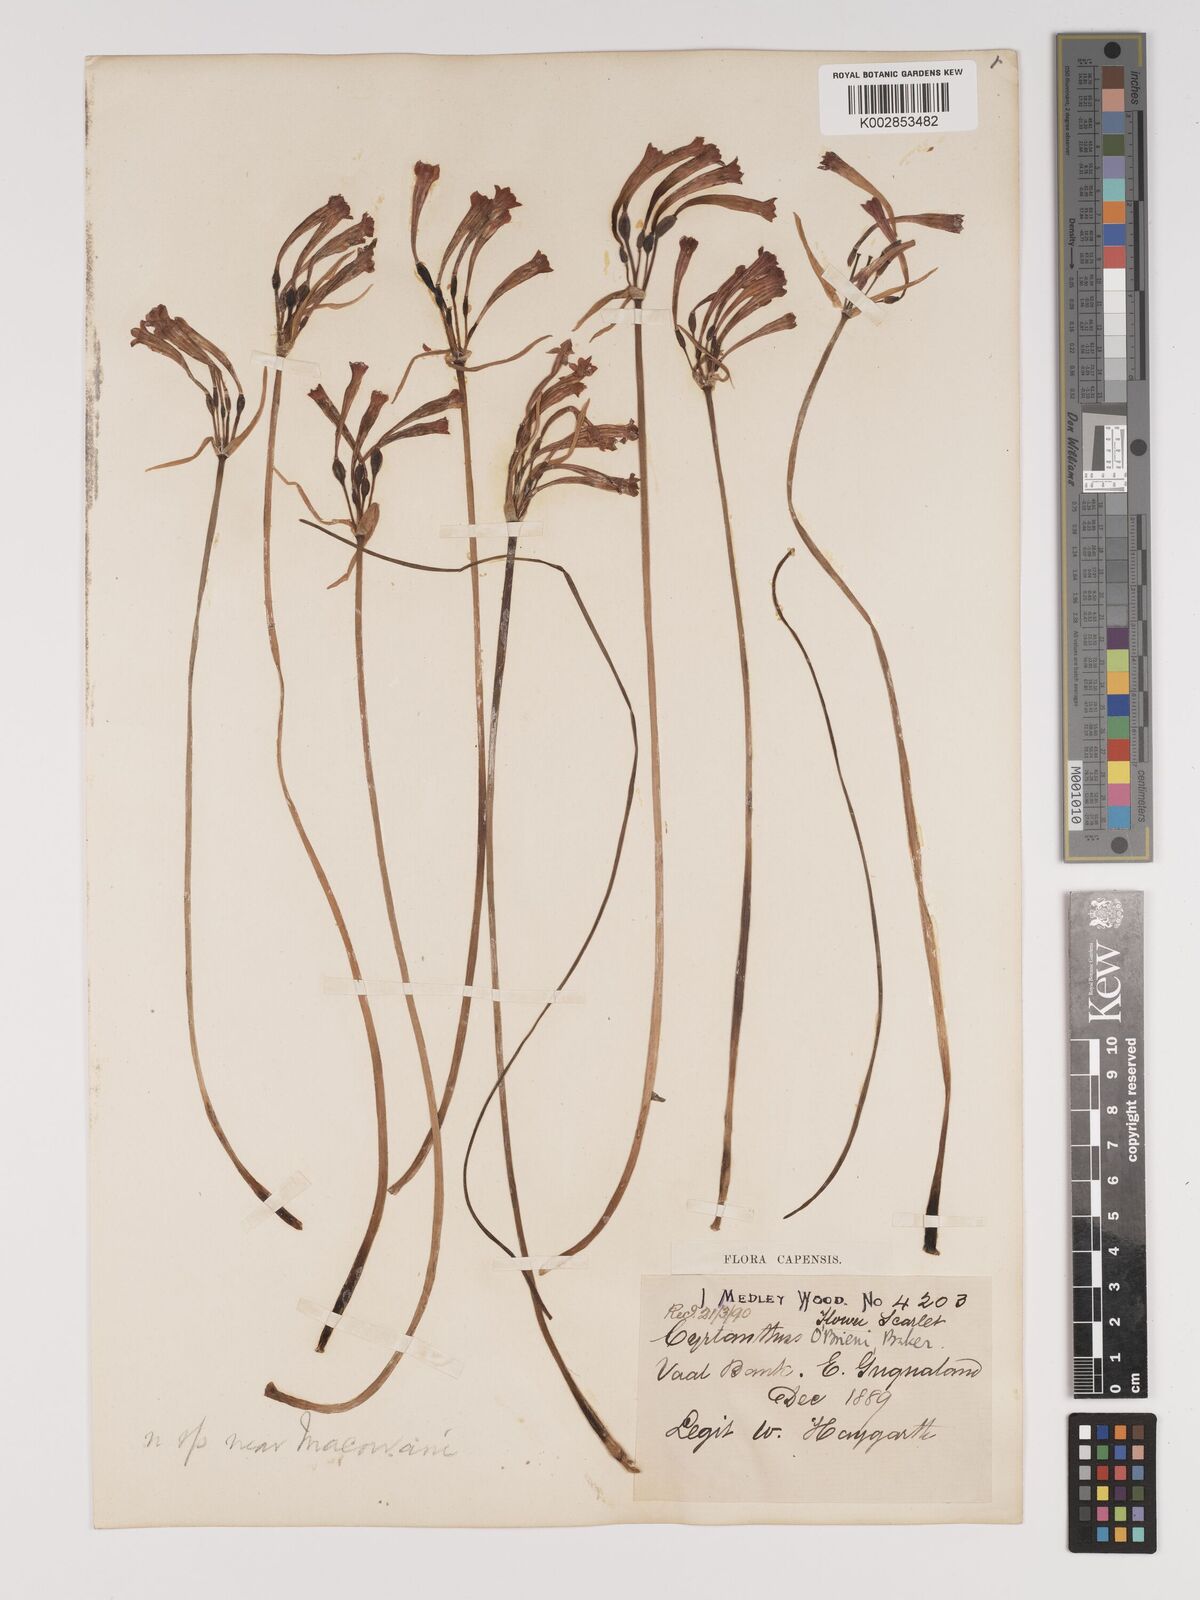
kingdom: Plantae
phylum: Tracheophyta
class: Liliopsida
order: Asparagales
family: Amaryllidaceae
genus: Cyrtanthus
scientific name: Cyrtanthus obrienii
